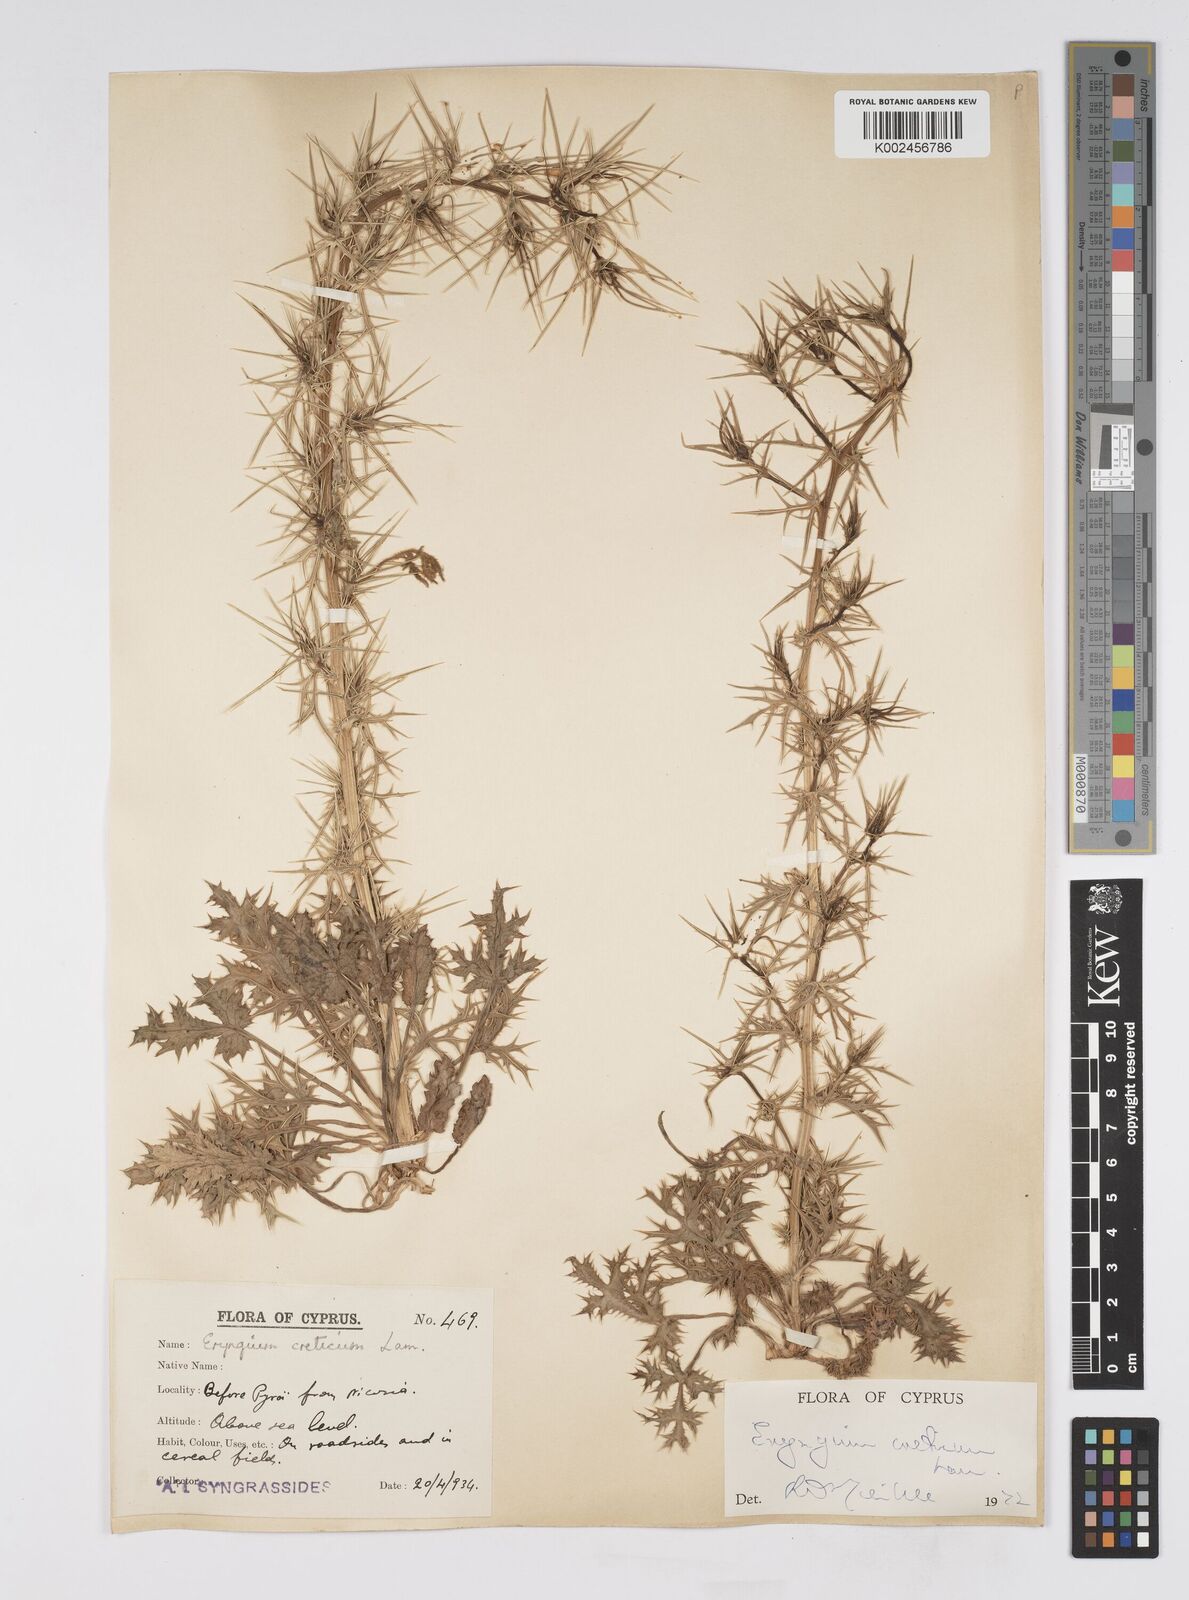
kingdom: Plantae
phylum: Tracheophyta
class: Magnoliopsida
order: Apiales
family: Apiaceae
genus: Eryngium
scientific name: Eryngium creticum
